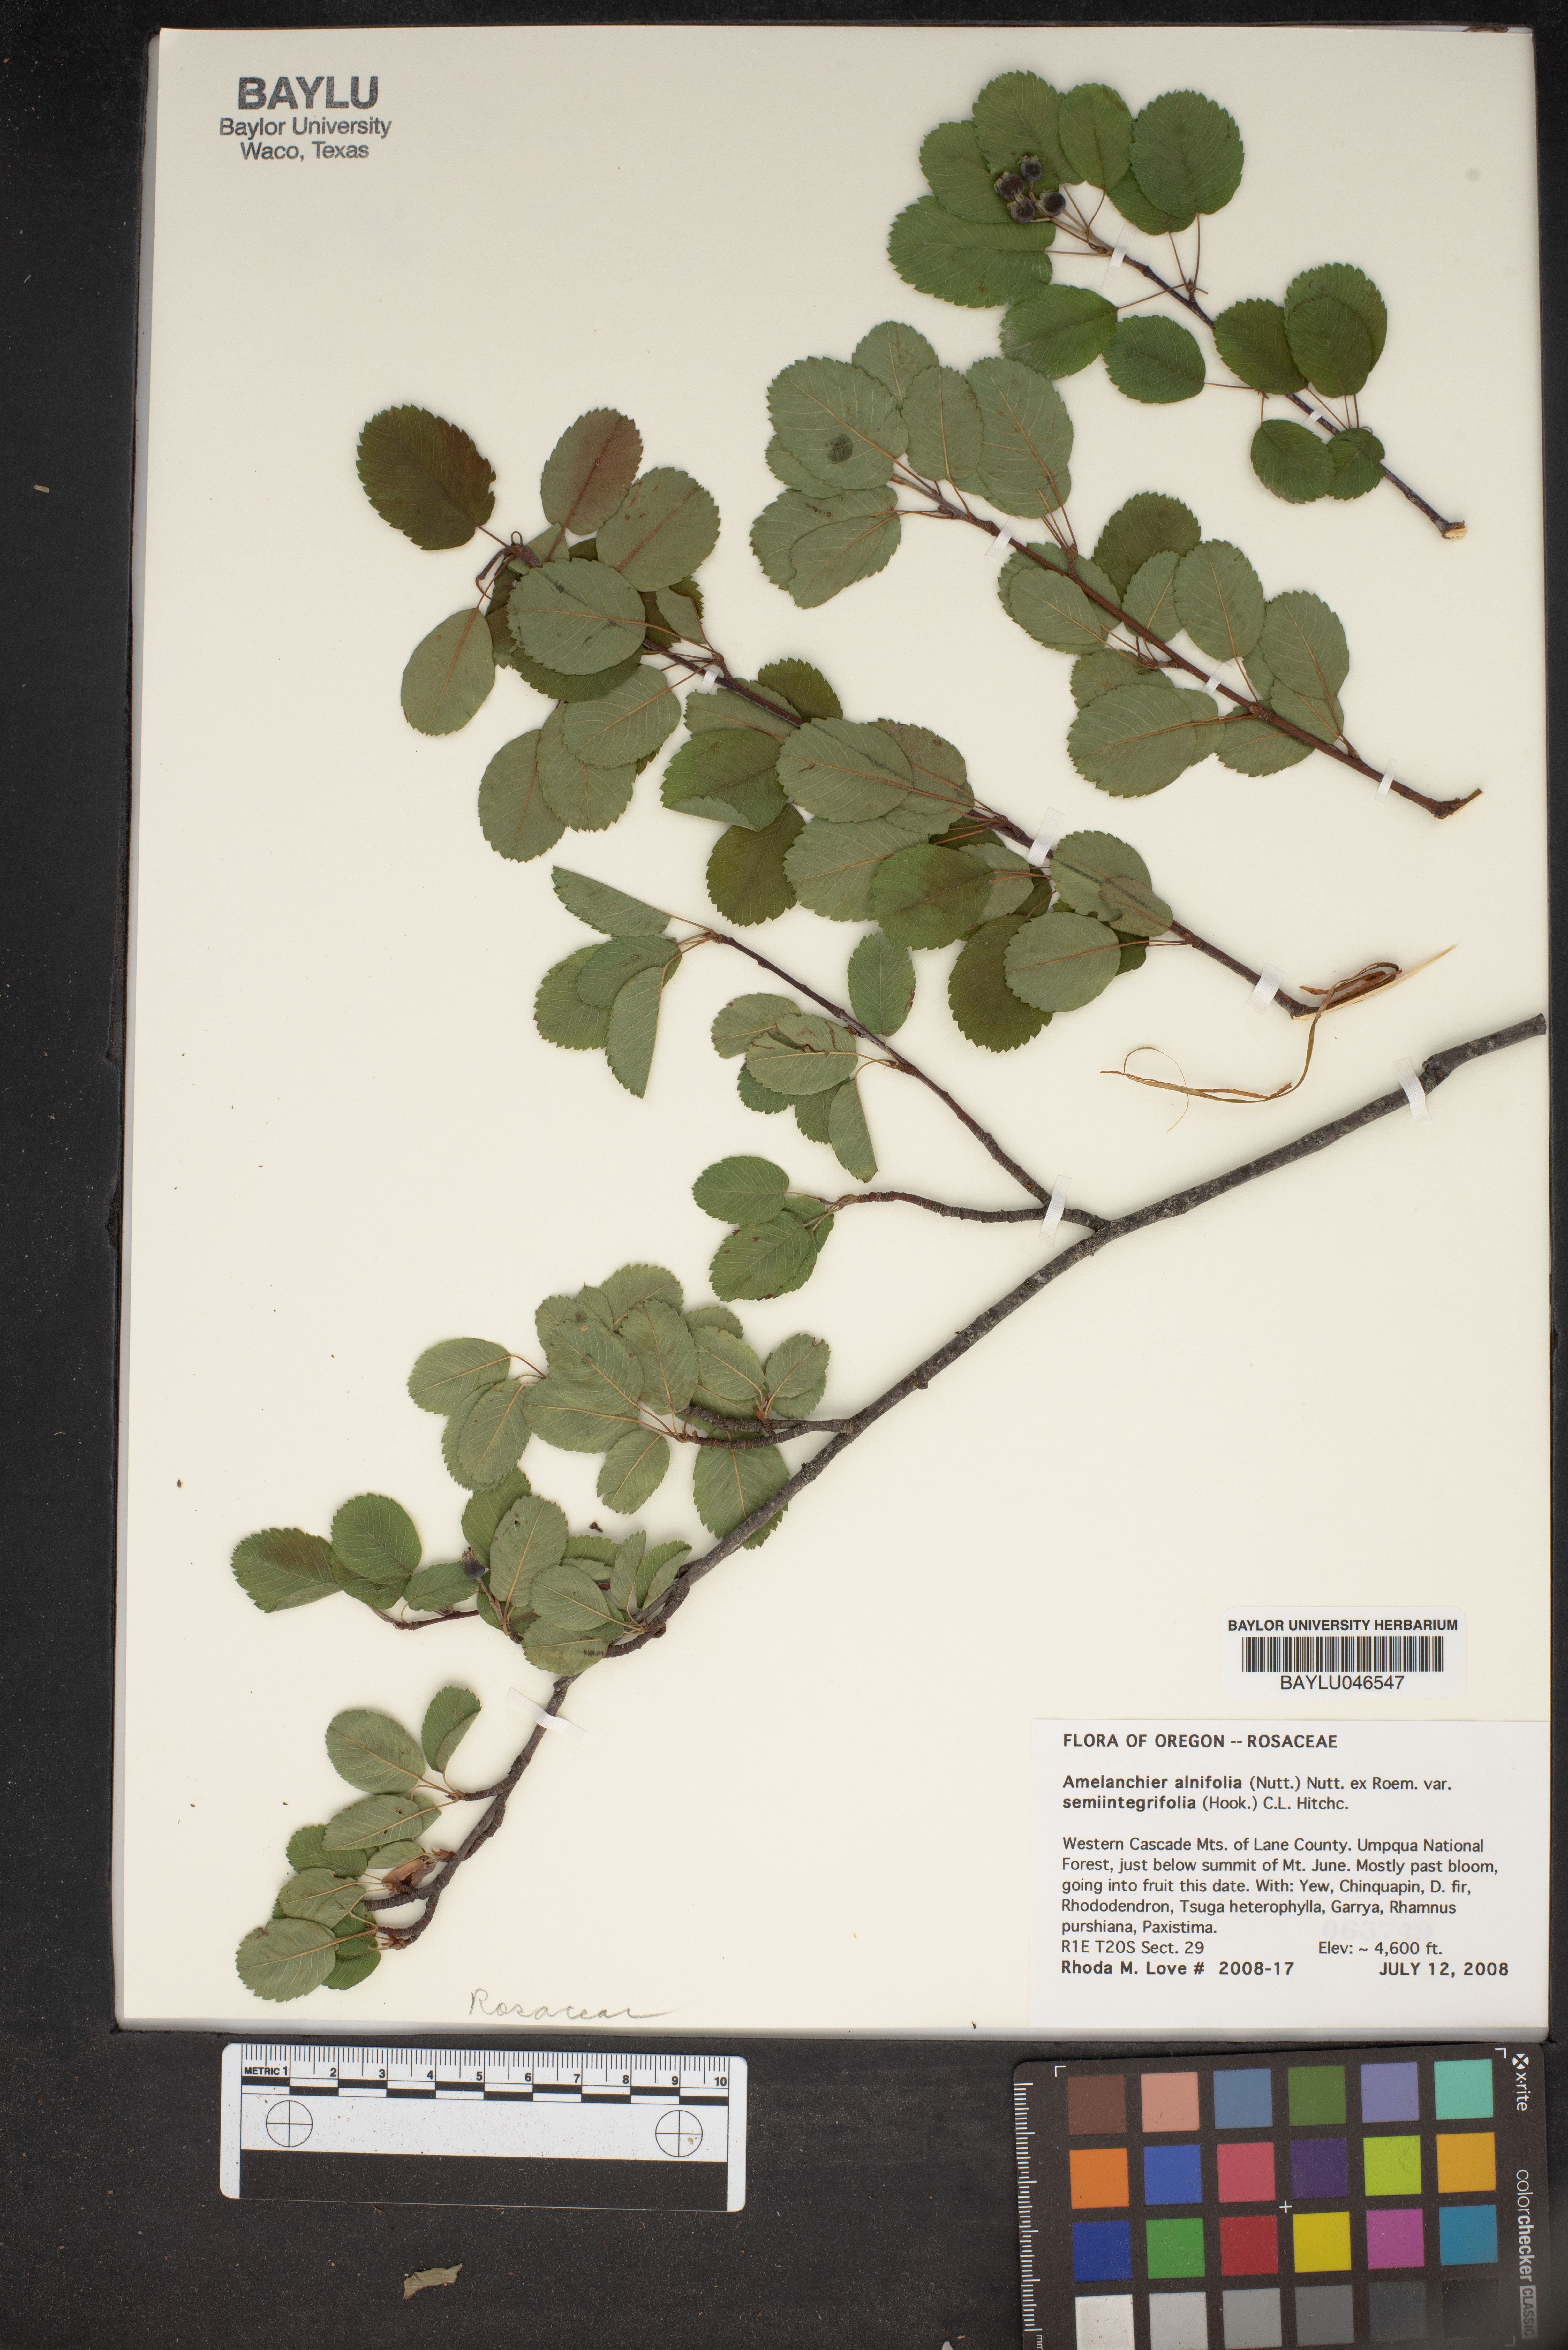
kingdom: Plantae
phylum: Tracheophyta
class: Magnoliopsida
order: Rosales
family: Rosaceae
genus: Amelanchier
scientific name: Amelanchier alnifolia
